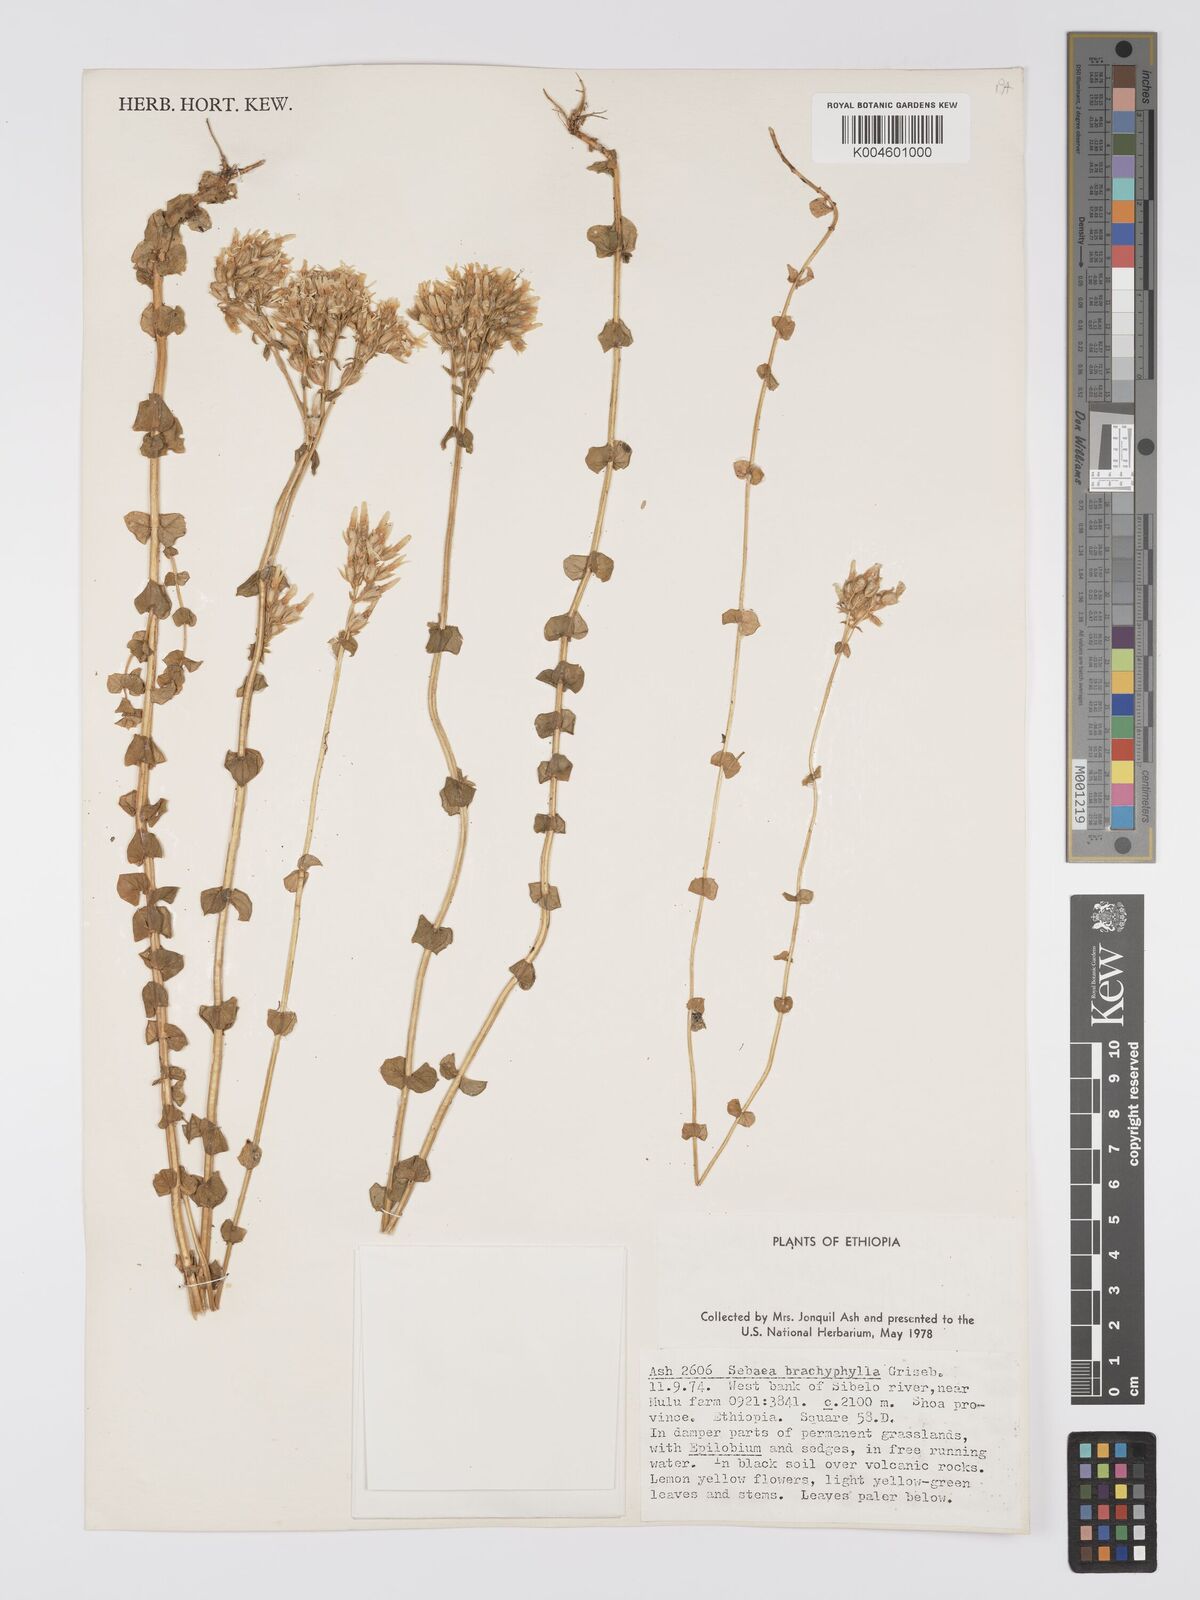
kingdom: Plantae
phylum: Tracheophyta
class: Magnoliopsida
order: Gentianales
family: Gentianaceae
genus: Sebaea
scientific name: Sebaea brachyphylla
